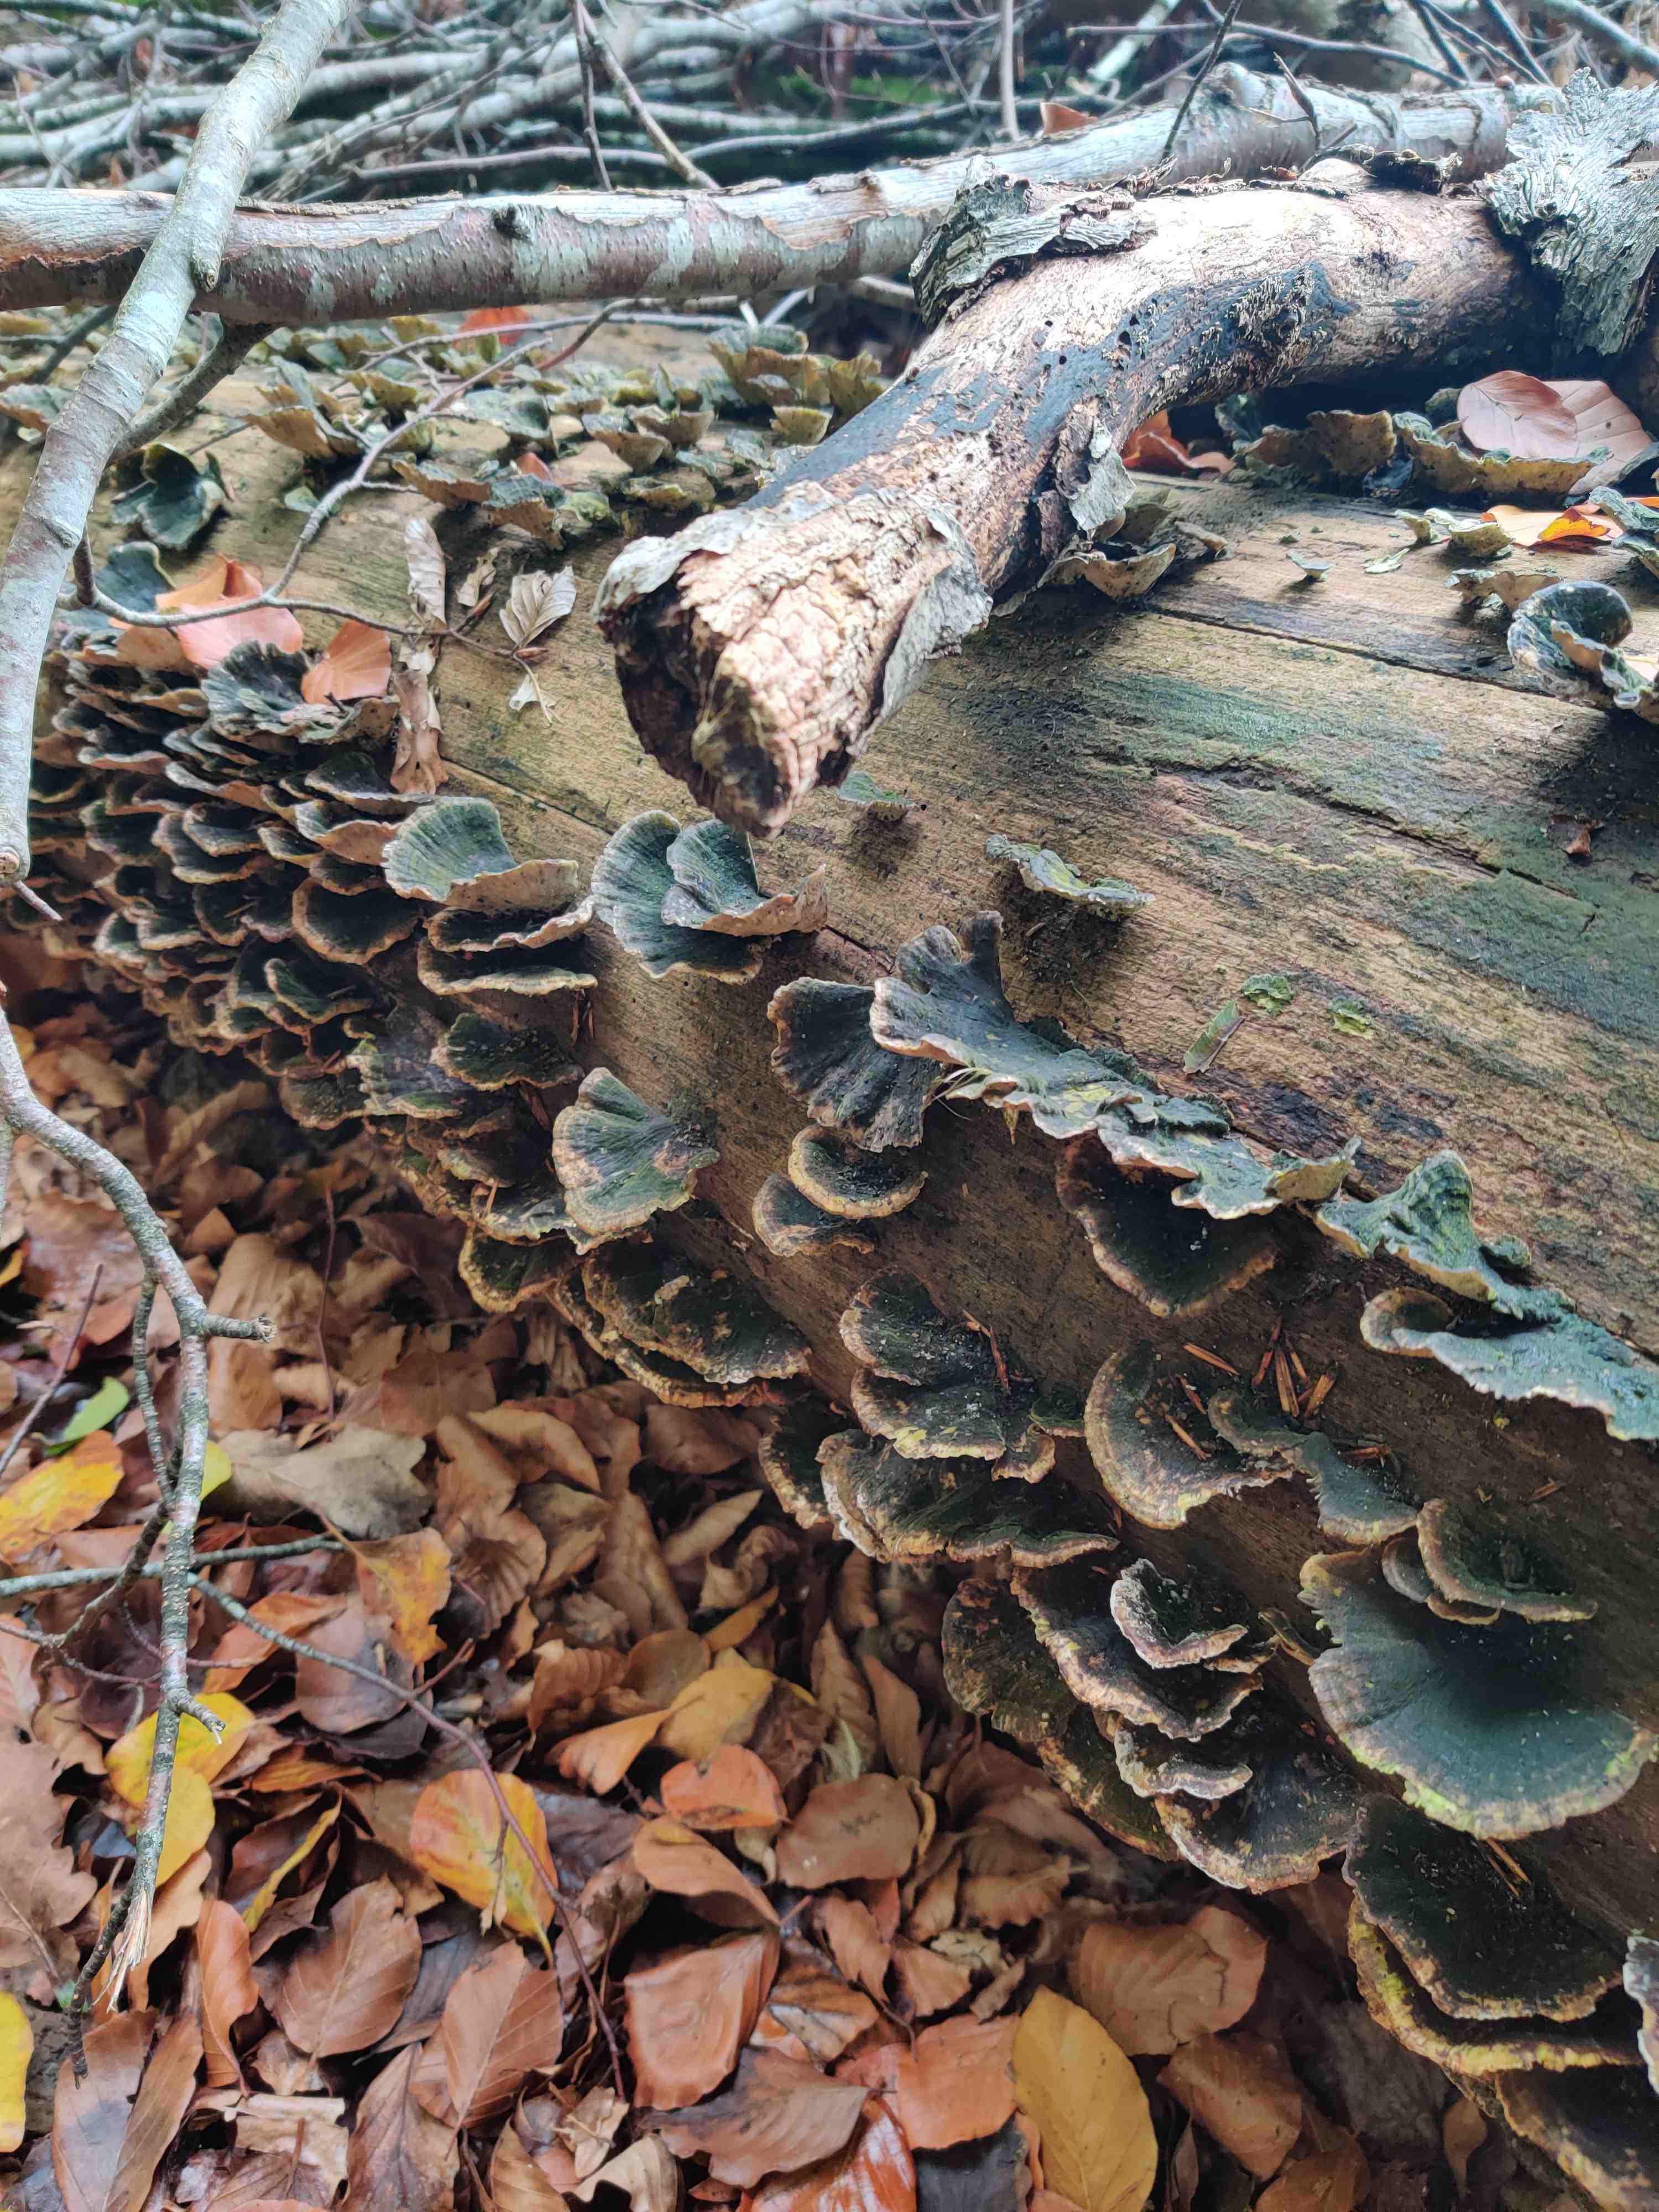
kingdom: Fungi
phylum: Basidiomycota
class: Agaricomycetes
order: Polyporales
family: Polyporaceae
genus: Trametes
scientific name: Trametes versicolor
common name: broget læderporesvamp
